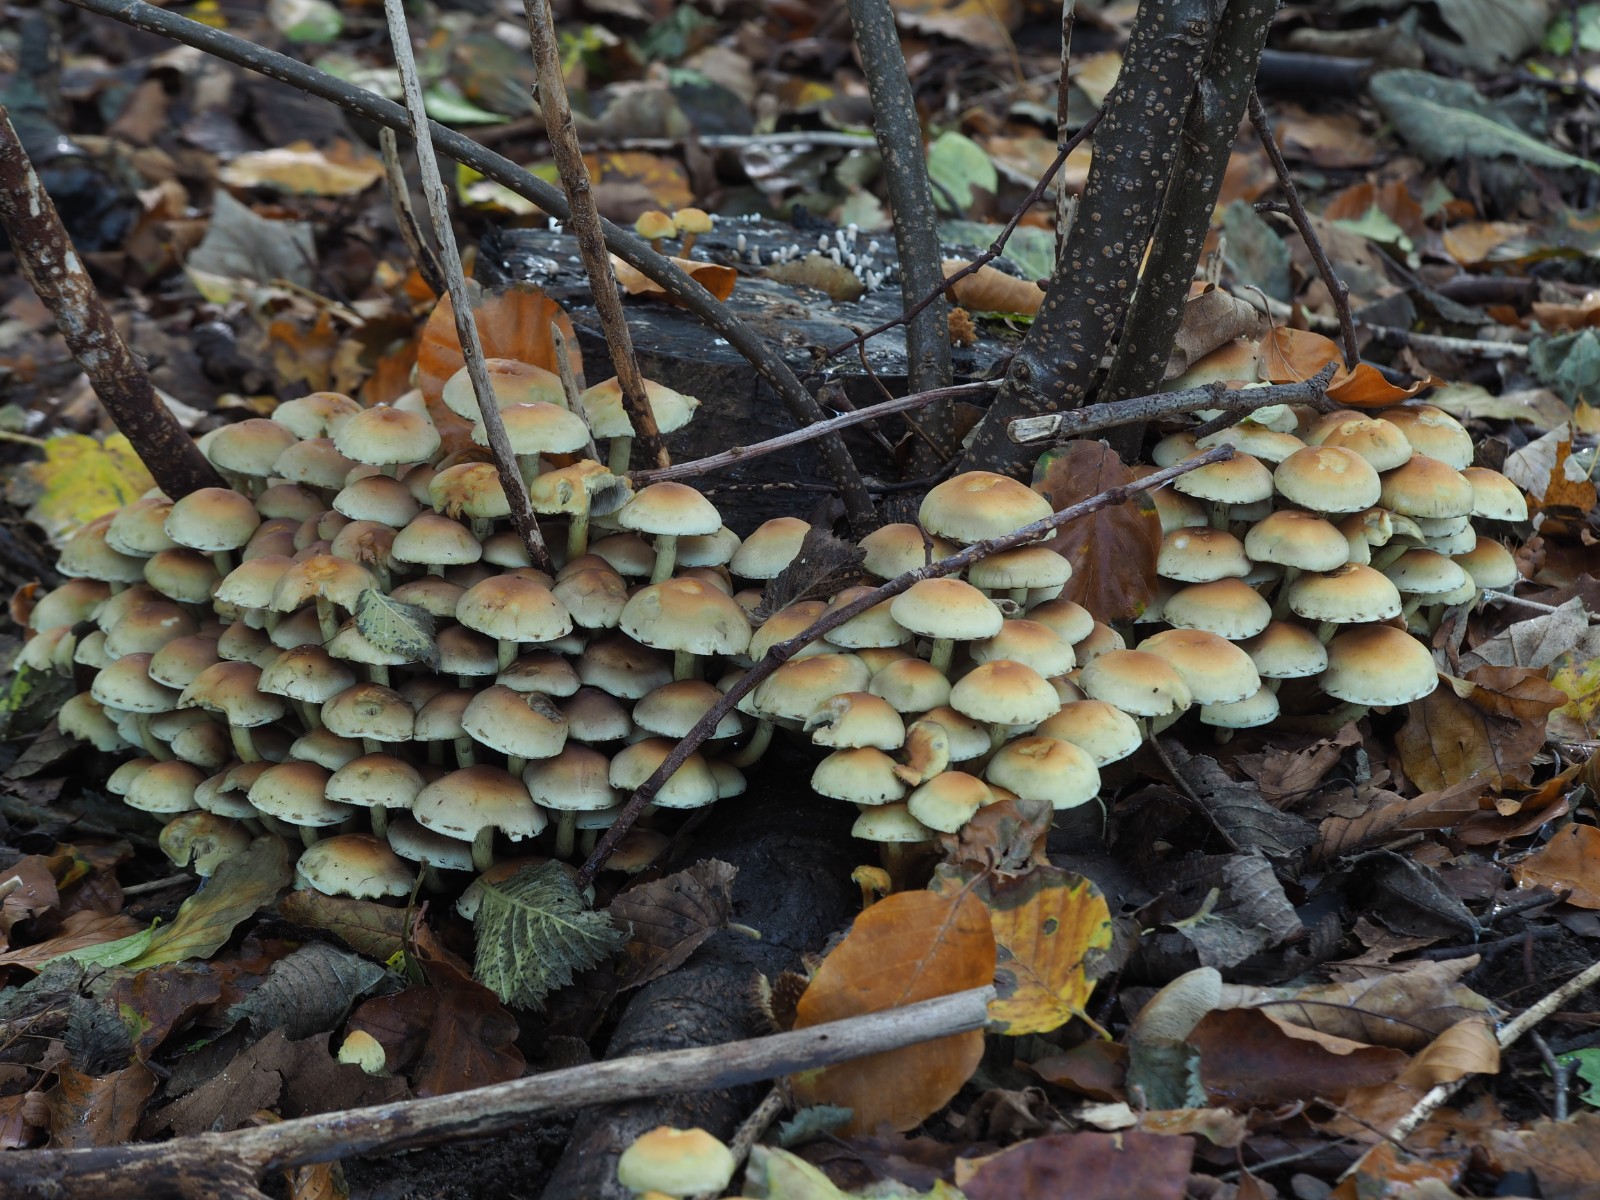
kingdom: Fungi
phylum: Basidiomycota
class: Agaricomycetes
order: Agaricales
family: Strophariaceae
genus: Hypholoma
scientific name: Hypholoma fasciculare
